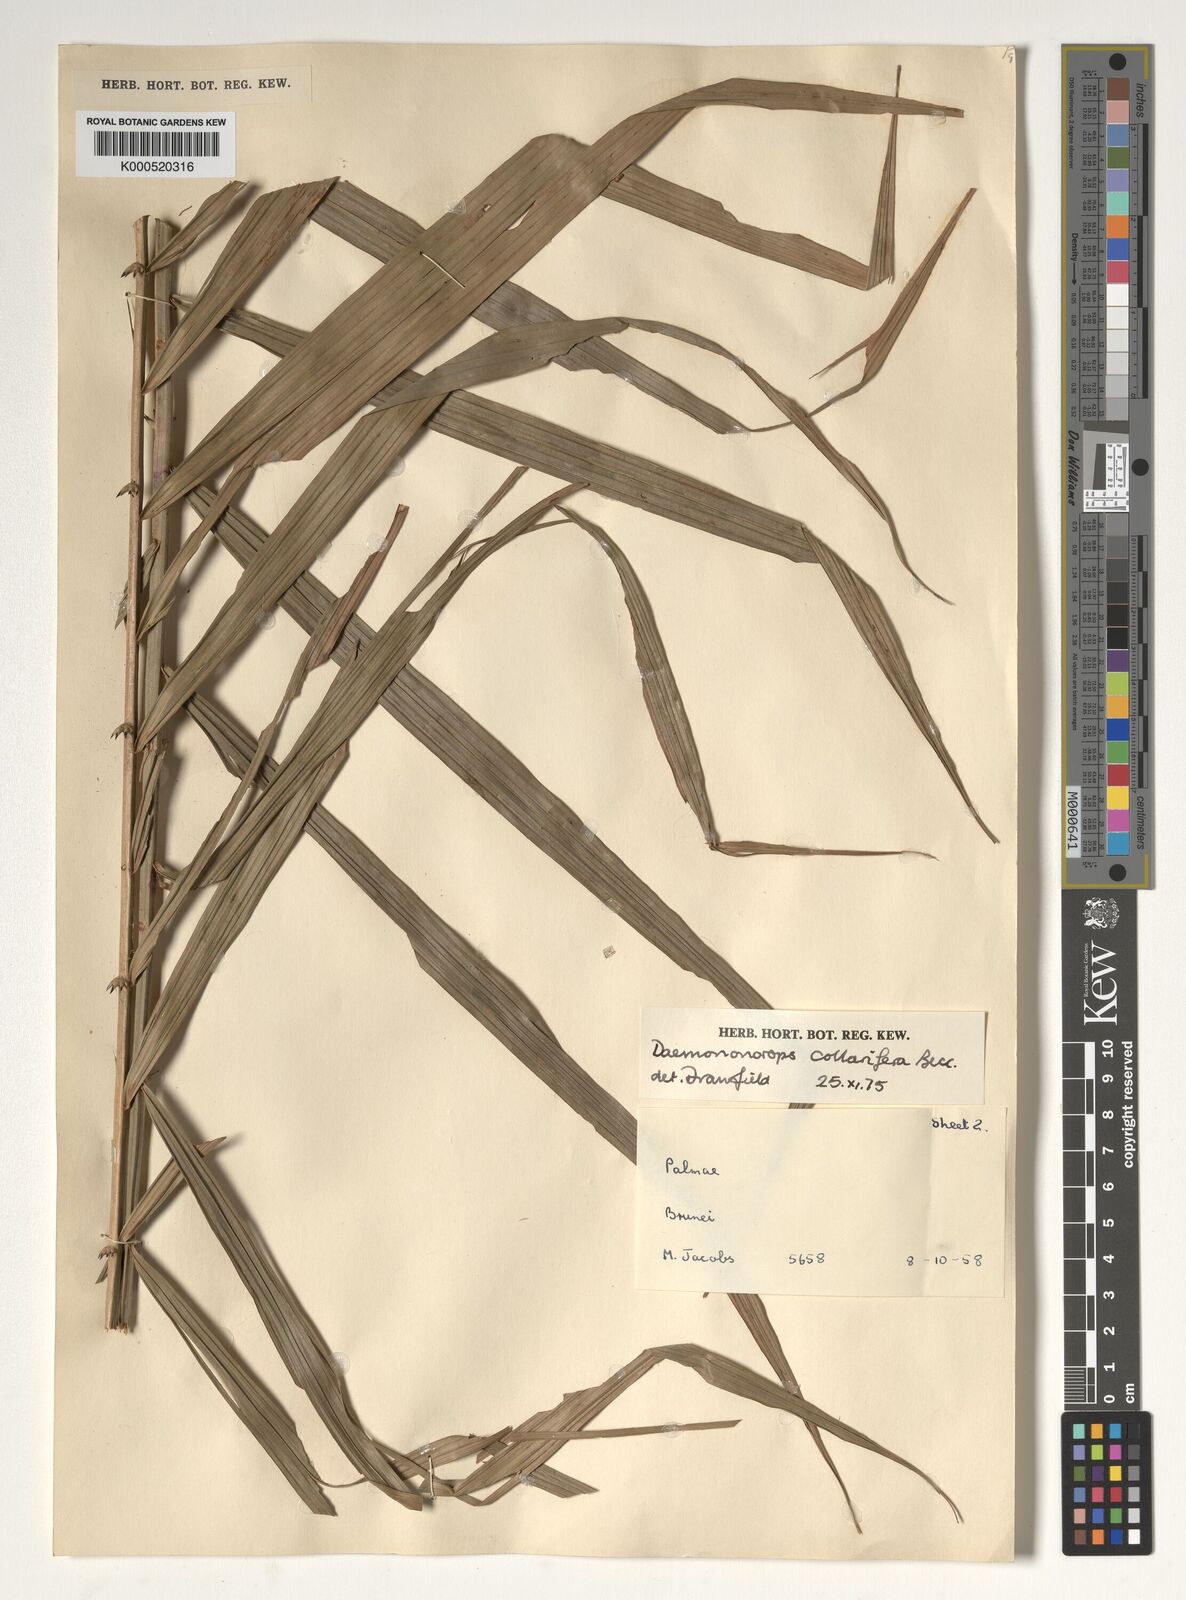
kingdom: Plantae
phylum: Tracheophyta
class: Liliopsida
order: Arecales
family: Arecaceae
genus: Calamus
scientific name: Calamus geniculatus
